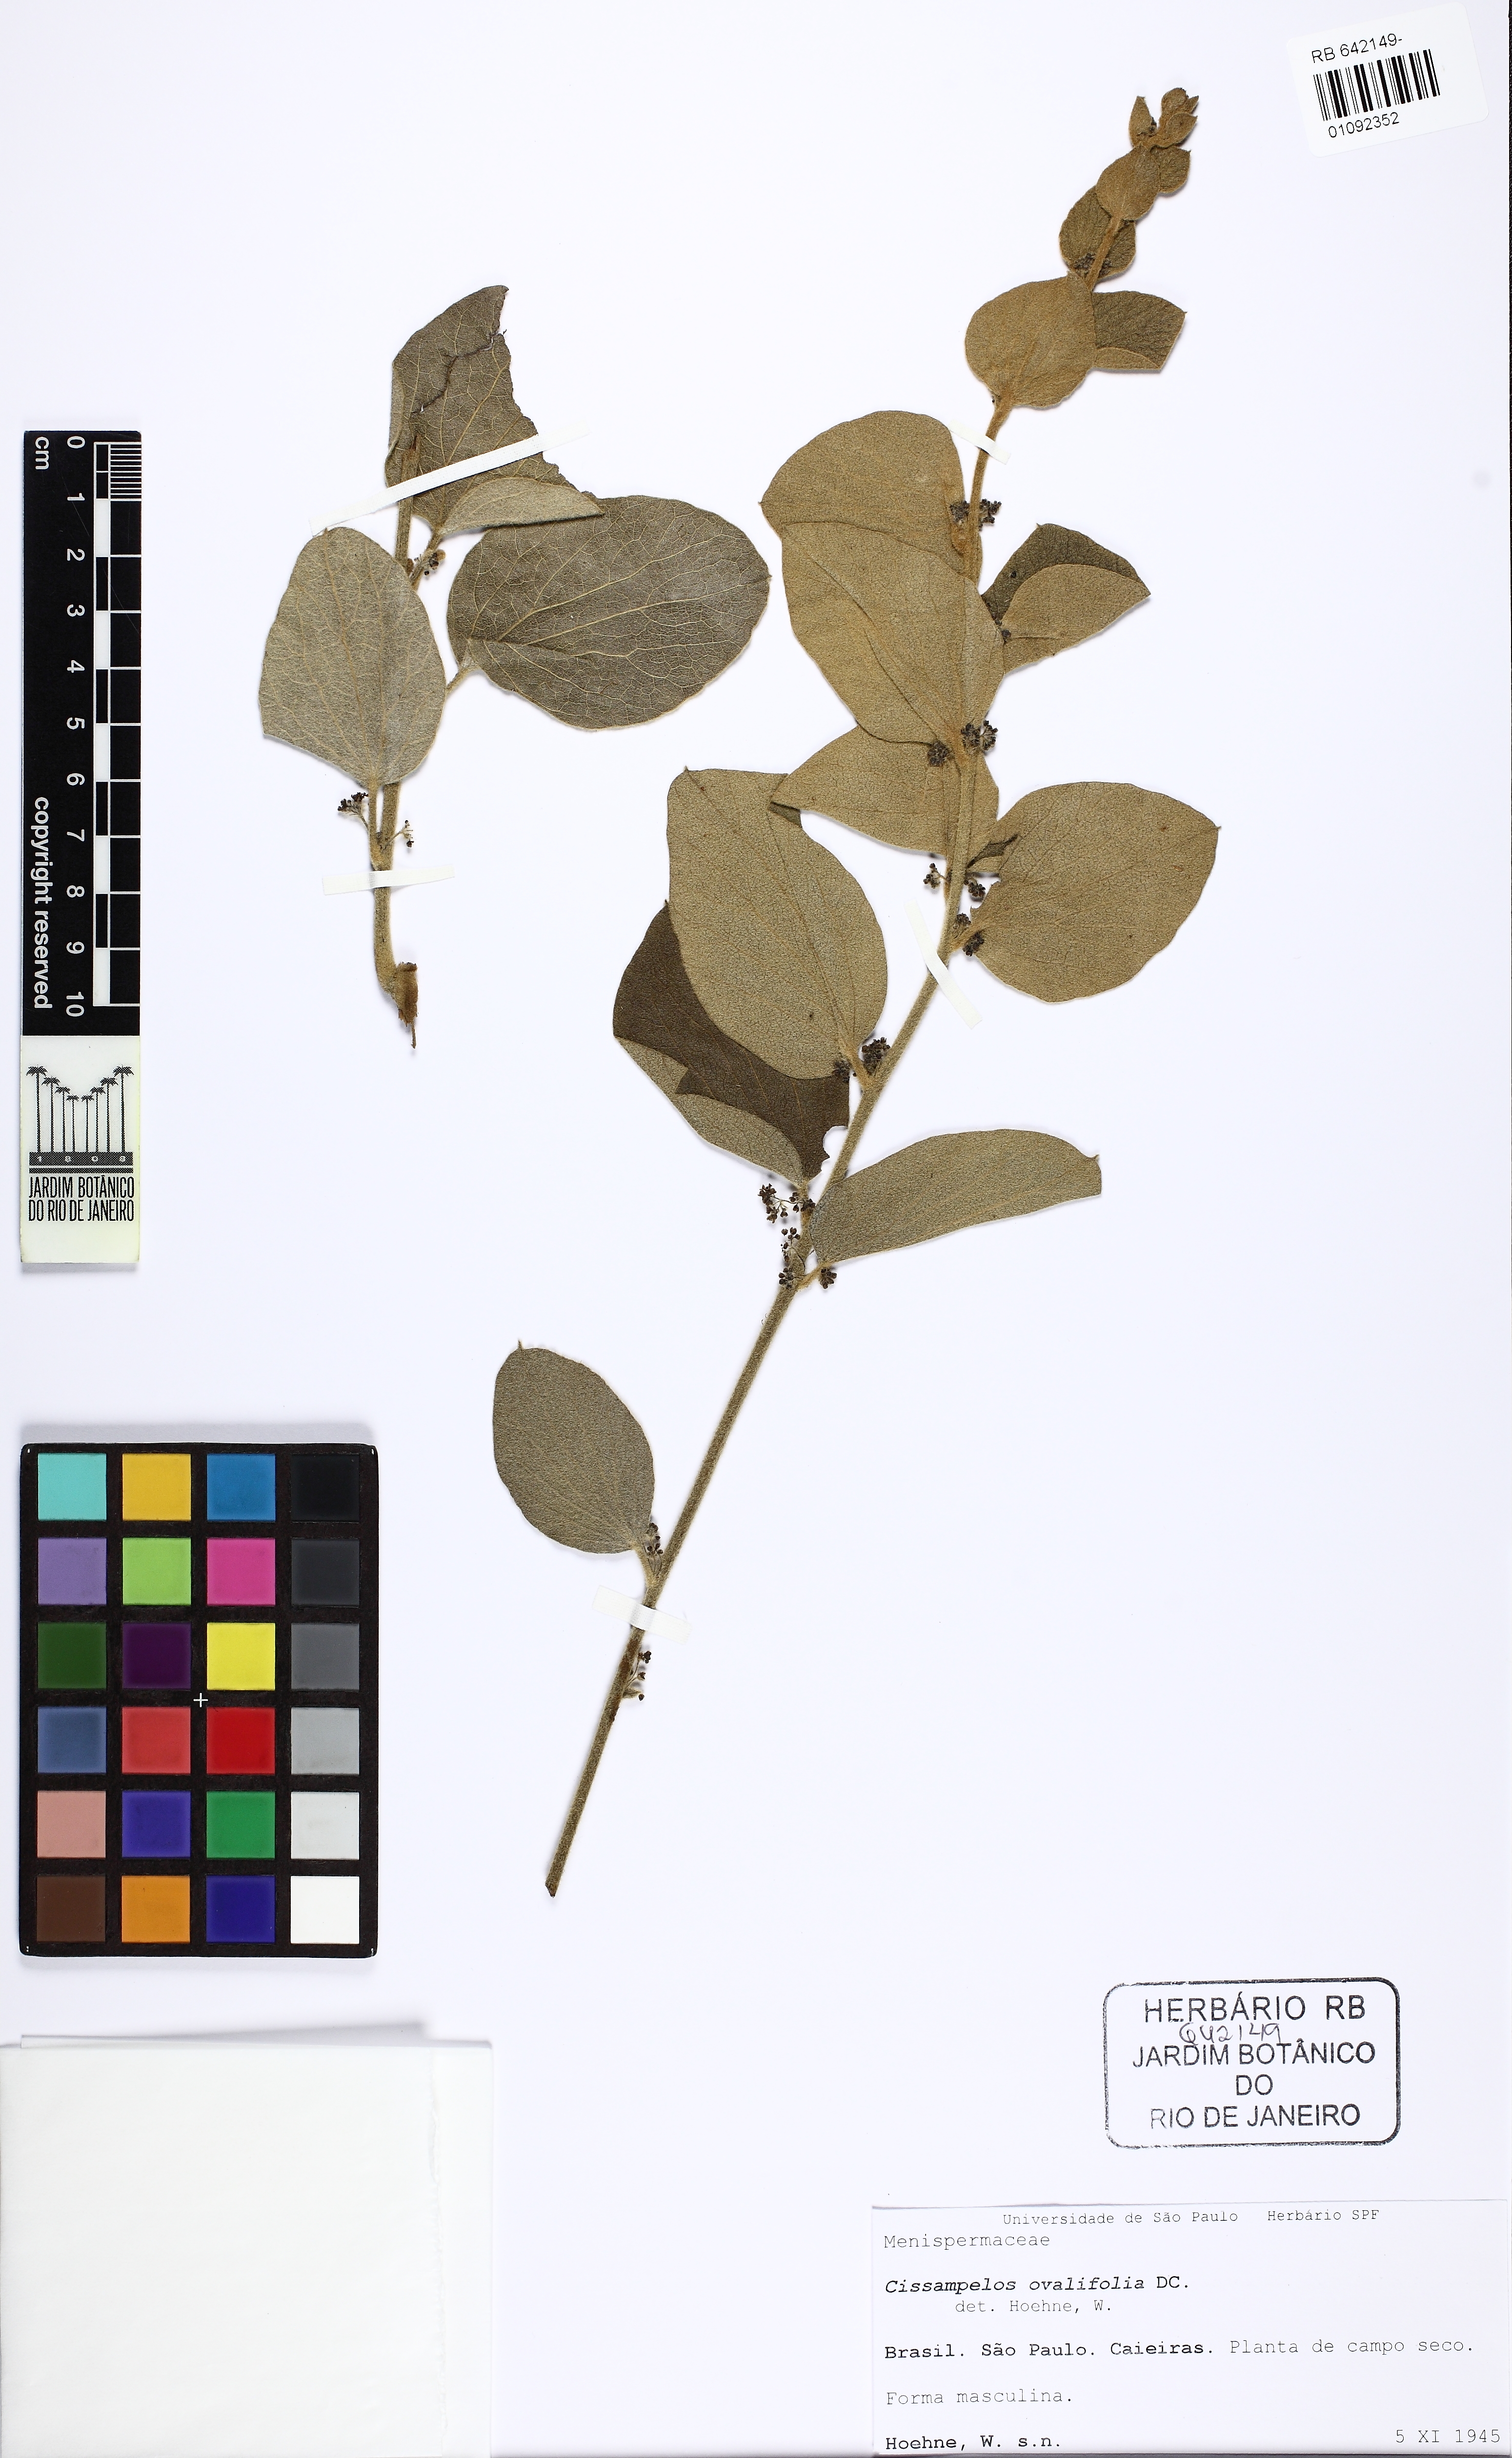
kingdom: Plantae
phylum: Tracheophyta
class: Magnoliopsida
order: Ranunculales
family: Menispermaceae
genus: Cissampelos
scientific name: Cissampelos ovalifolia
